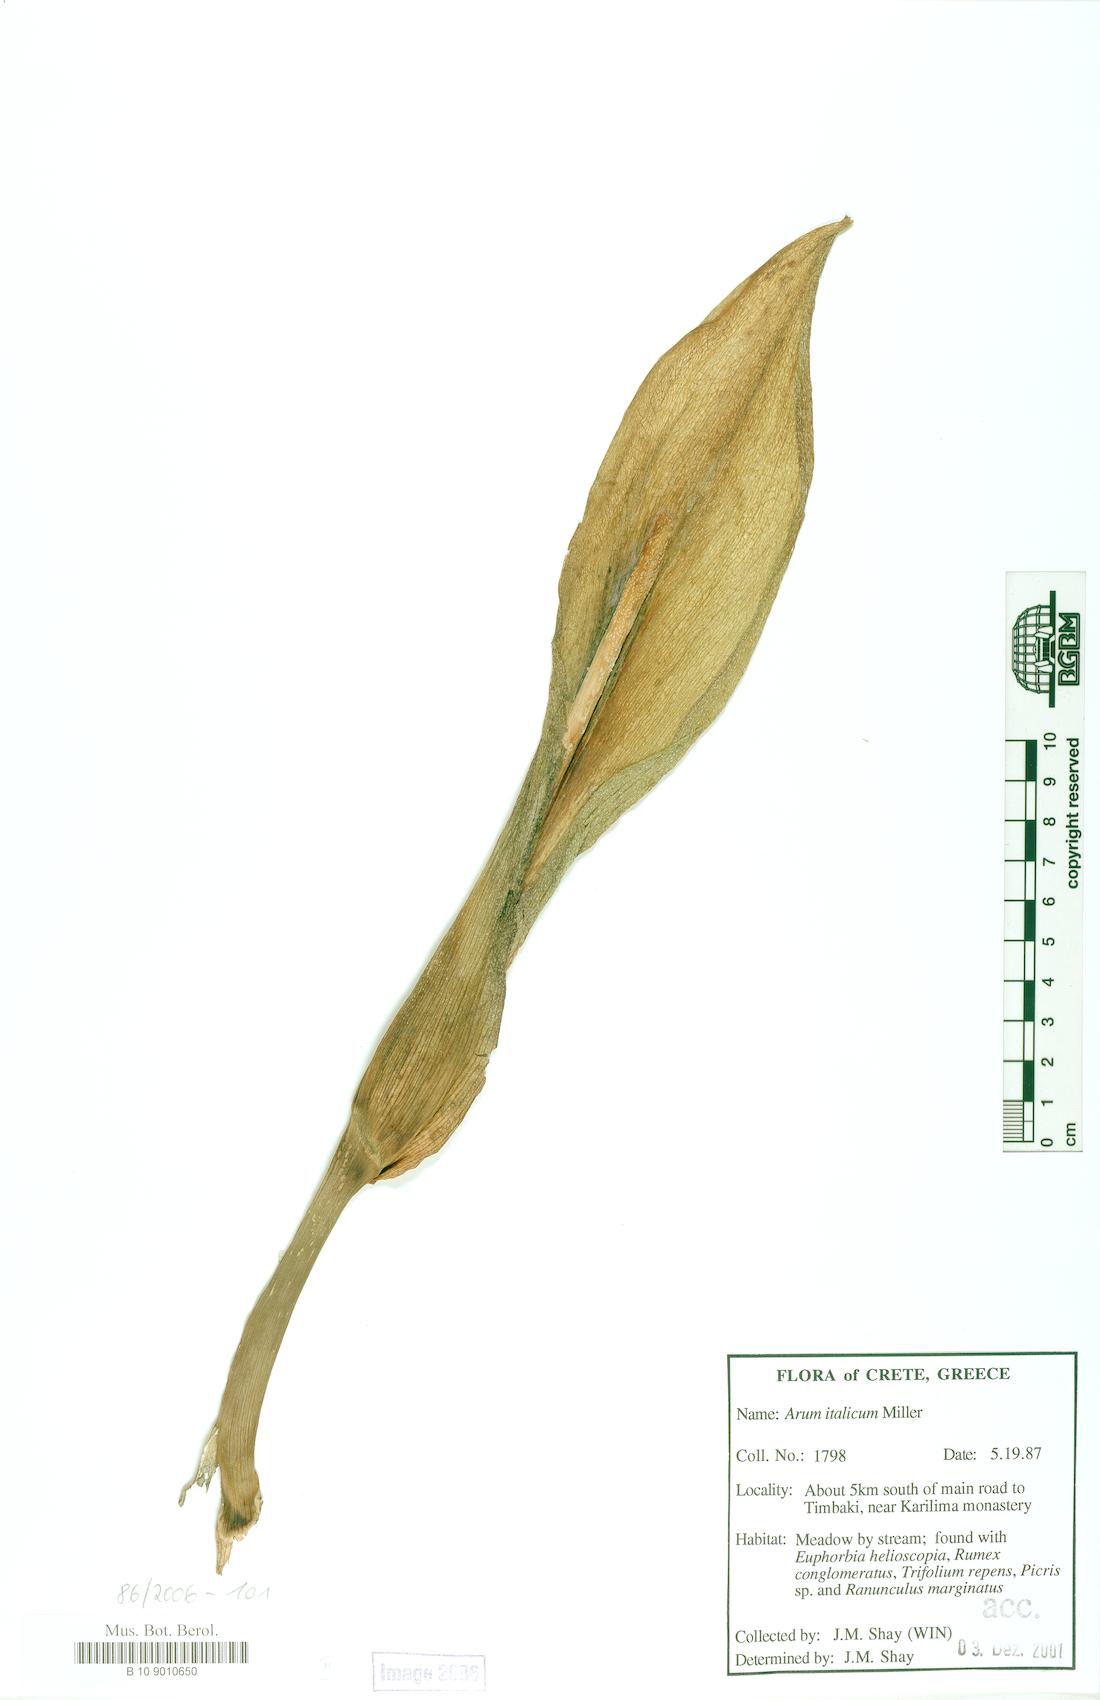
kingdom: Plantae
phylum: Tracheophyta
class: Liliopsida
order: Alismatales
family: Araceae
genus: Arum
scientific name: Arum italicum
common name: Italian lords-and-ladies
